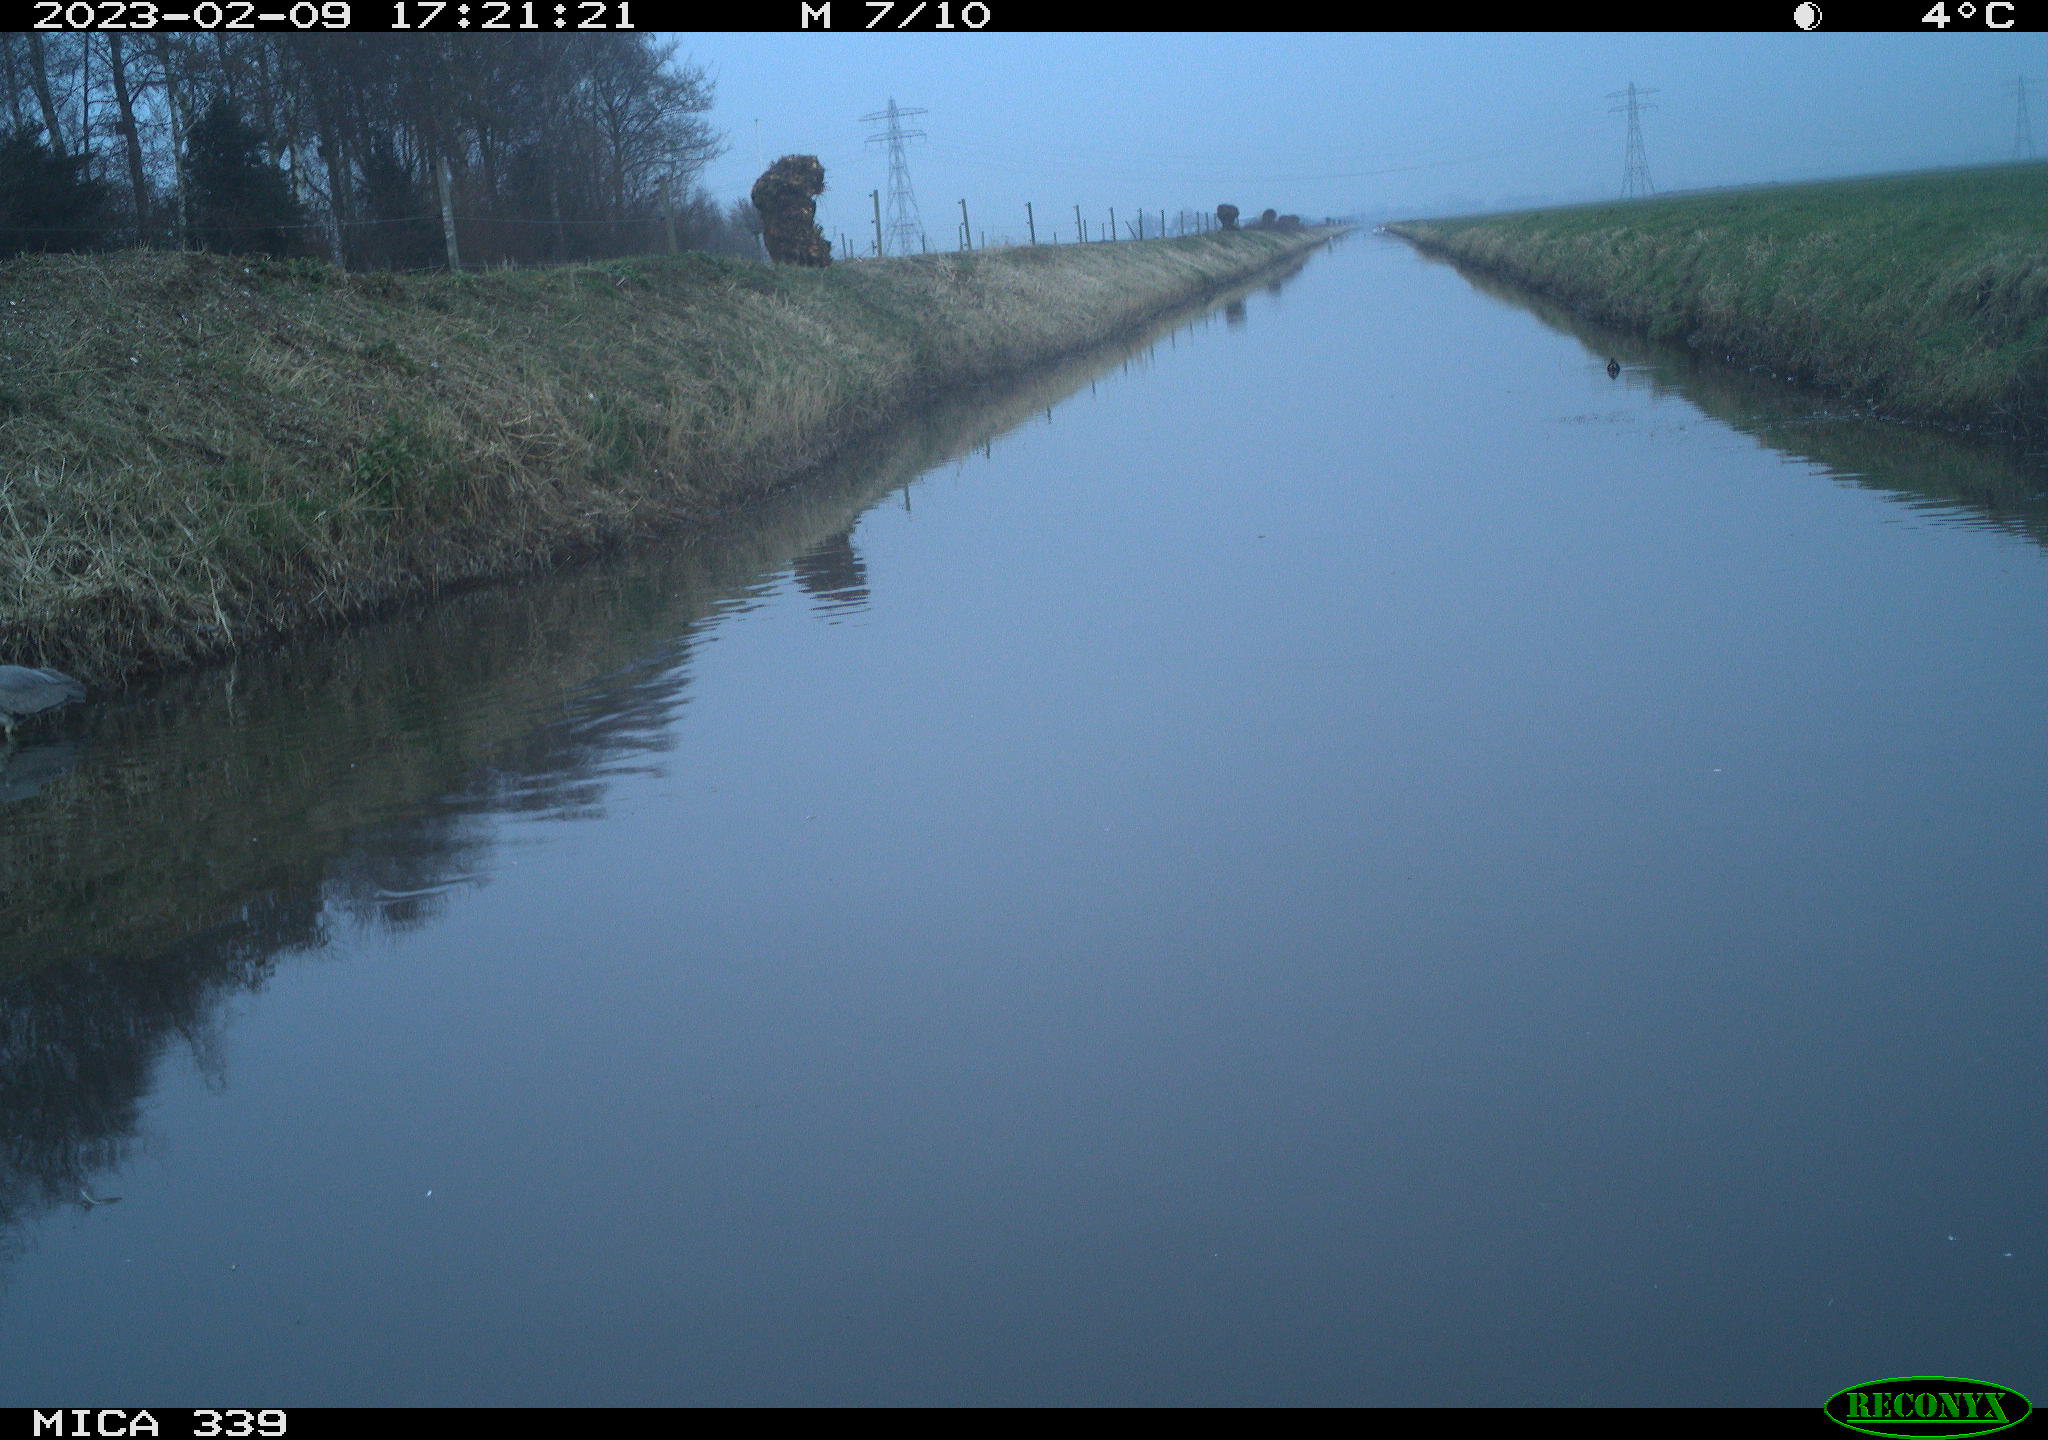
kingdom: Animalia
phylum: Chordata
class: Aves
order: Pelecaniformes
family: Ardeidae
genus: Ardea
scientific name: Ardea cinerea
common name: Grey heron
